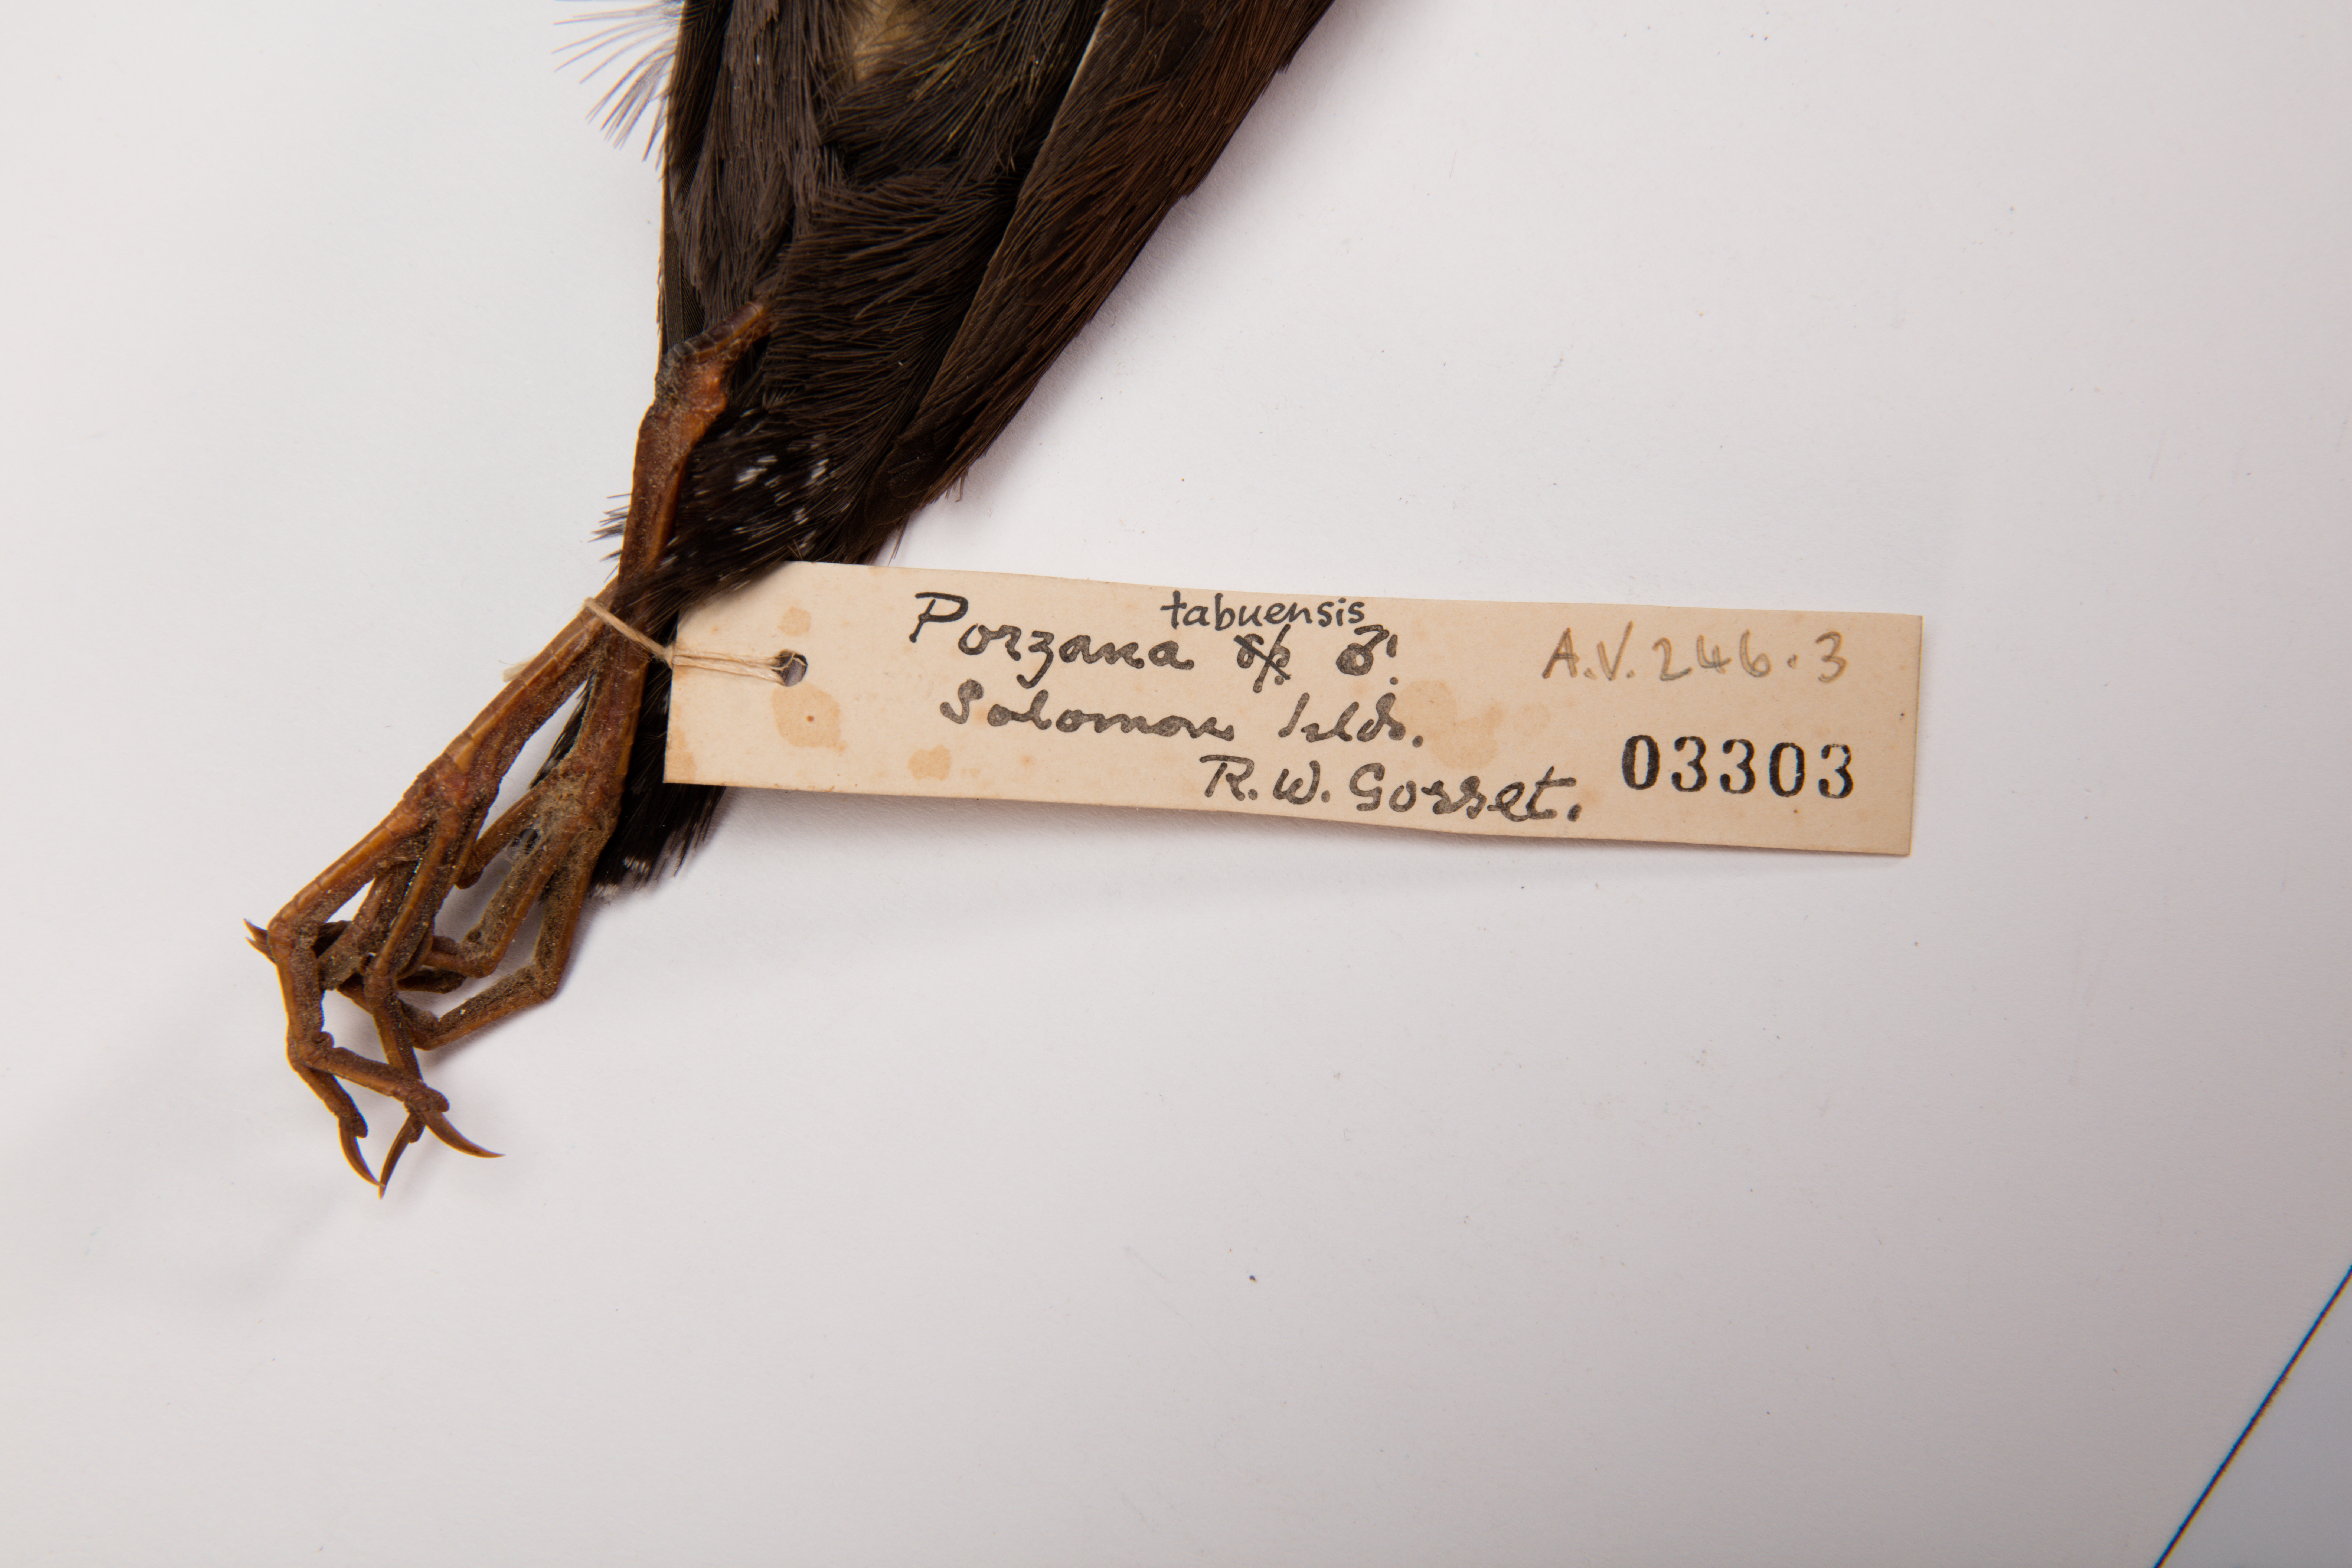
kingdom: Animalia
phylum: Chordata
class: Aves
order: Gruiformes
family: Rallidae
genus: Porzana
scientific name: Porzana tabuensis
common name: Spotless crake
